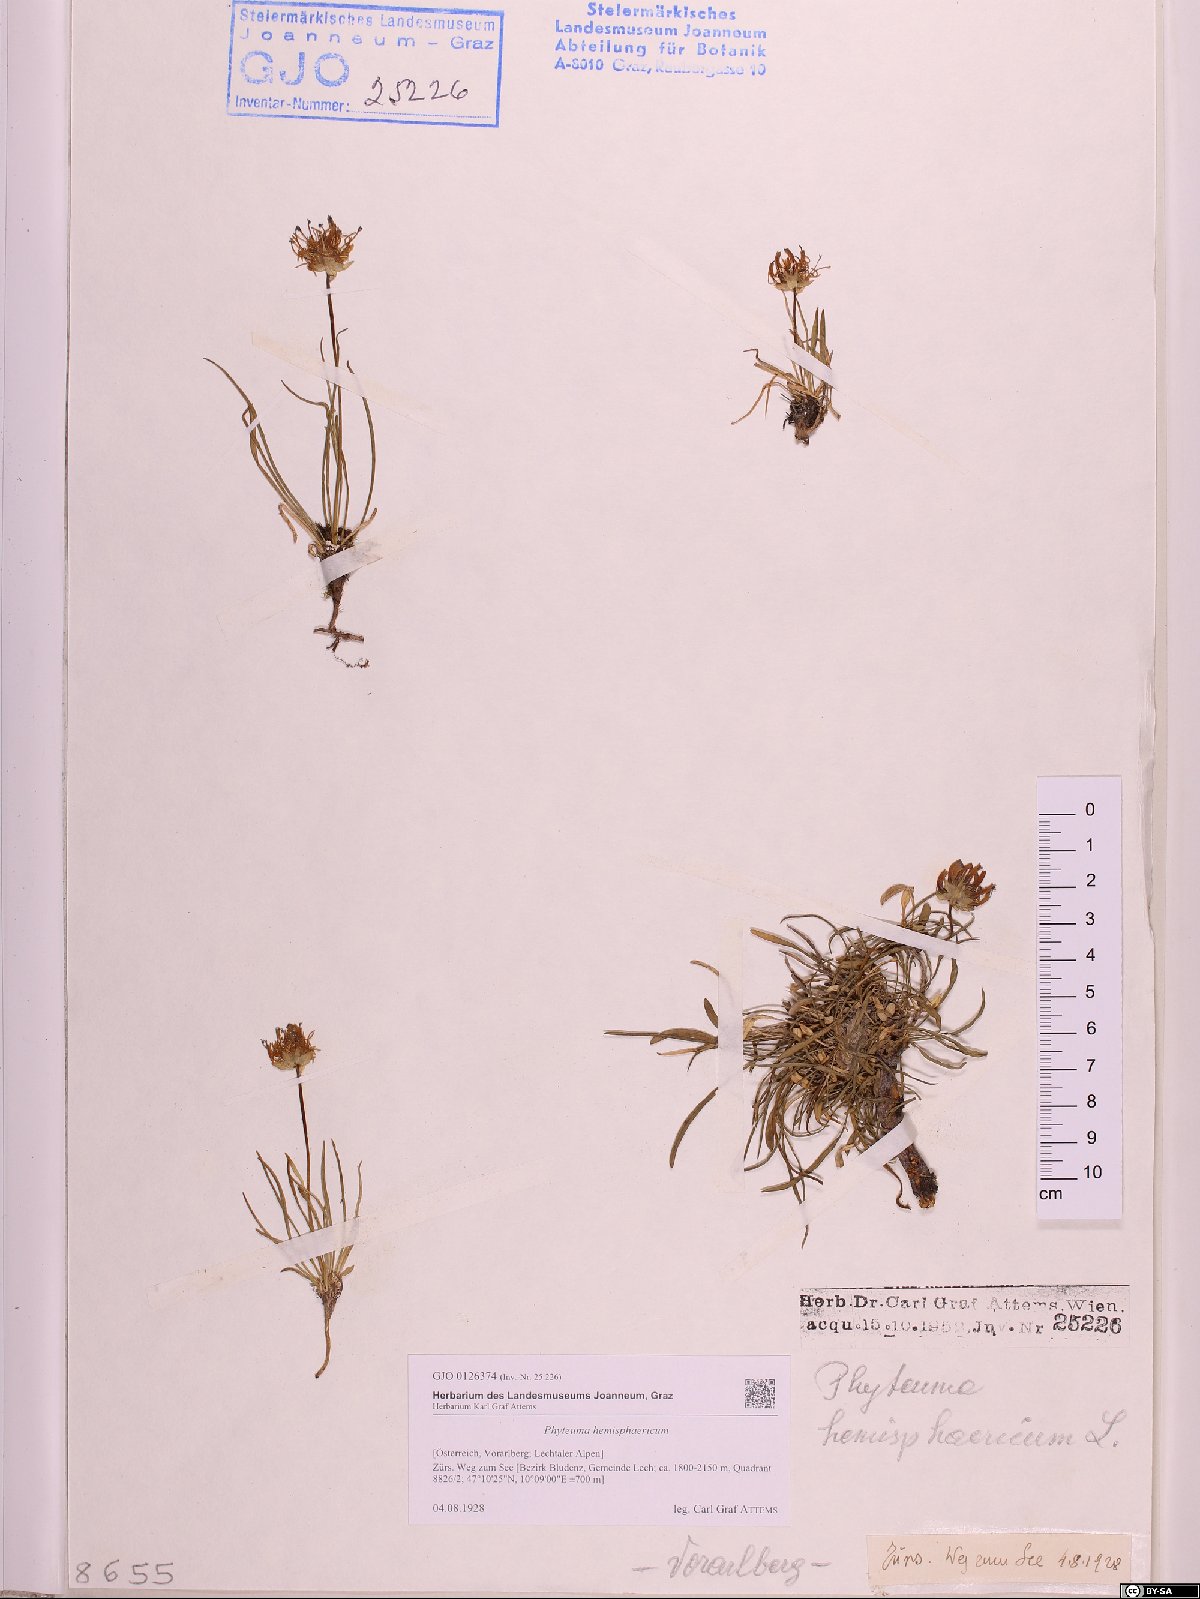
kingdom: Plantae
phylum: Tracheophyta
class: Magnoliopsida
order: Asterales
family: Campanulaceae
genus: Phyteuma
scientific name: Phyteuma hemisphaericum
